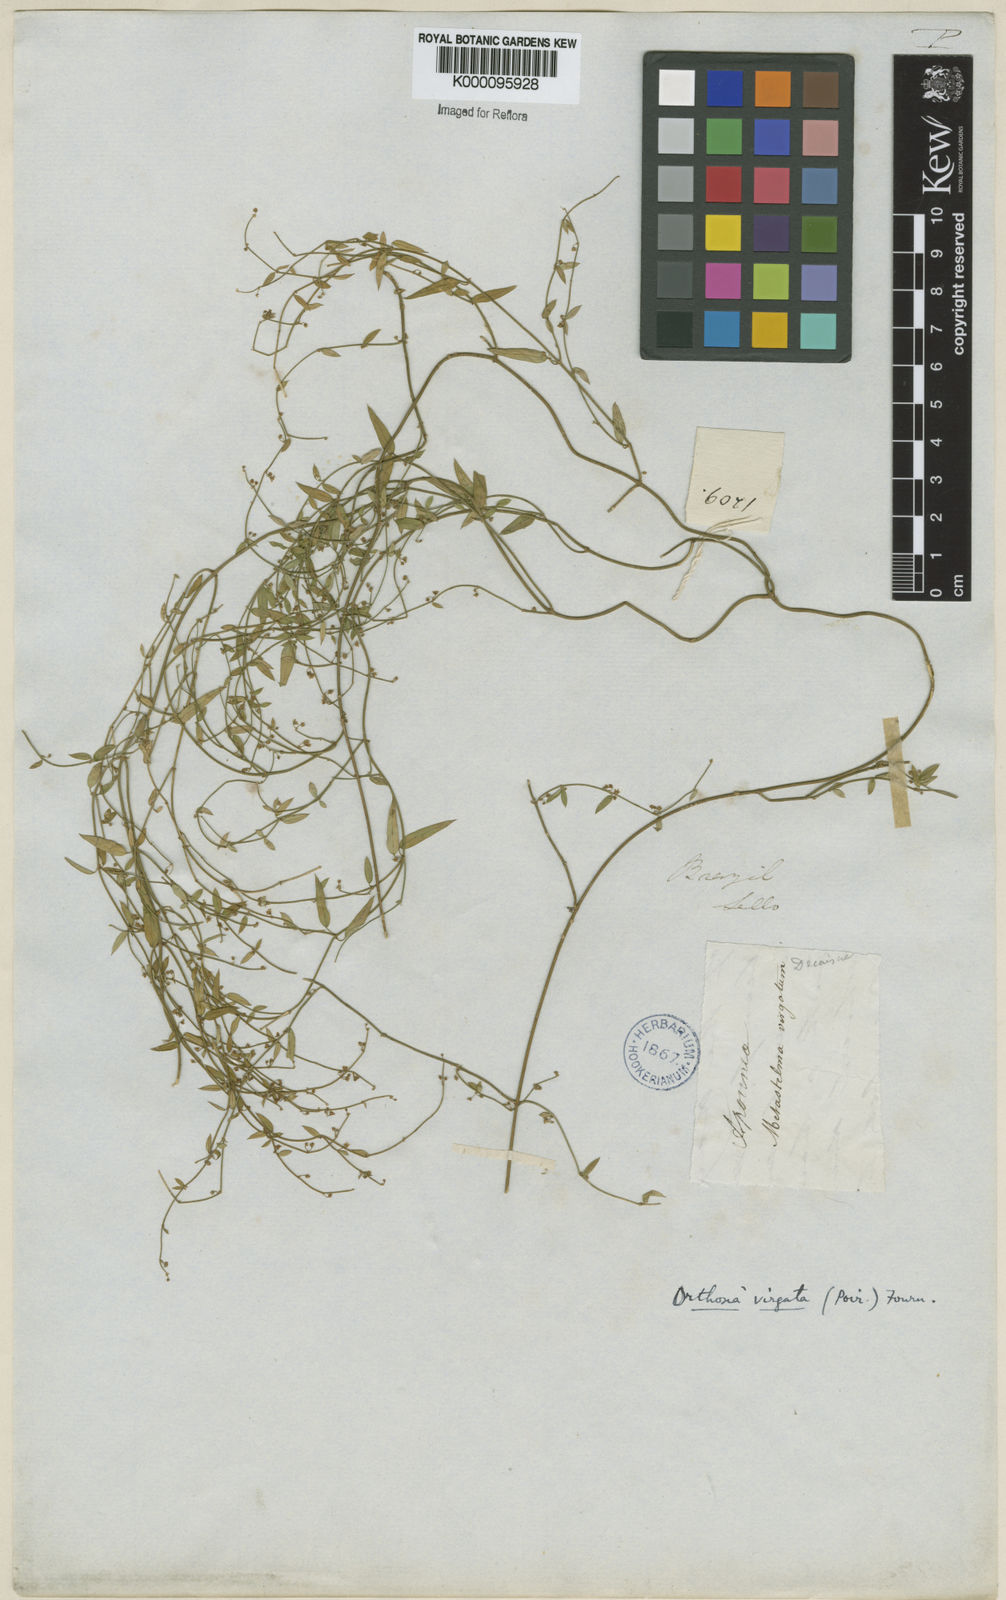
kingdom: Plantae
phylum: Tracheophyta
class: Magnoliopsida
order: Gentianales
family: Apocynaceae
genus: Orthosia
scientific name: Orthosia virgata
